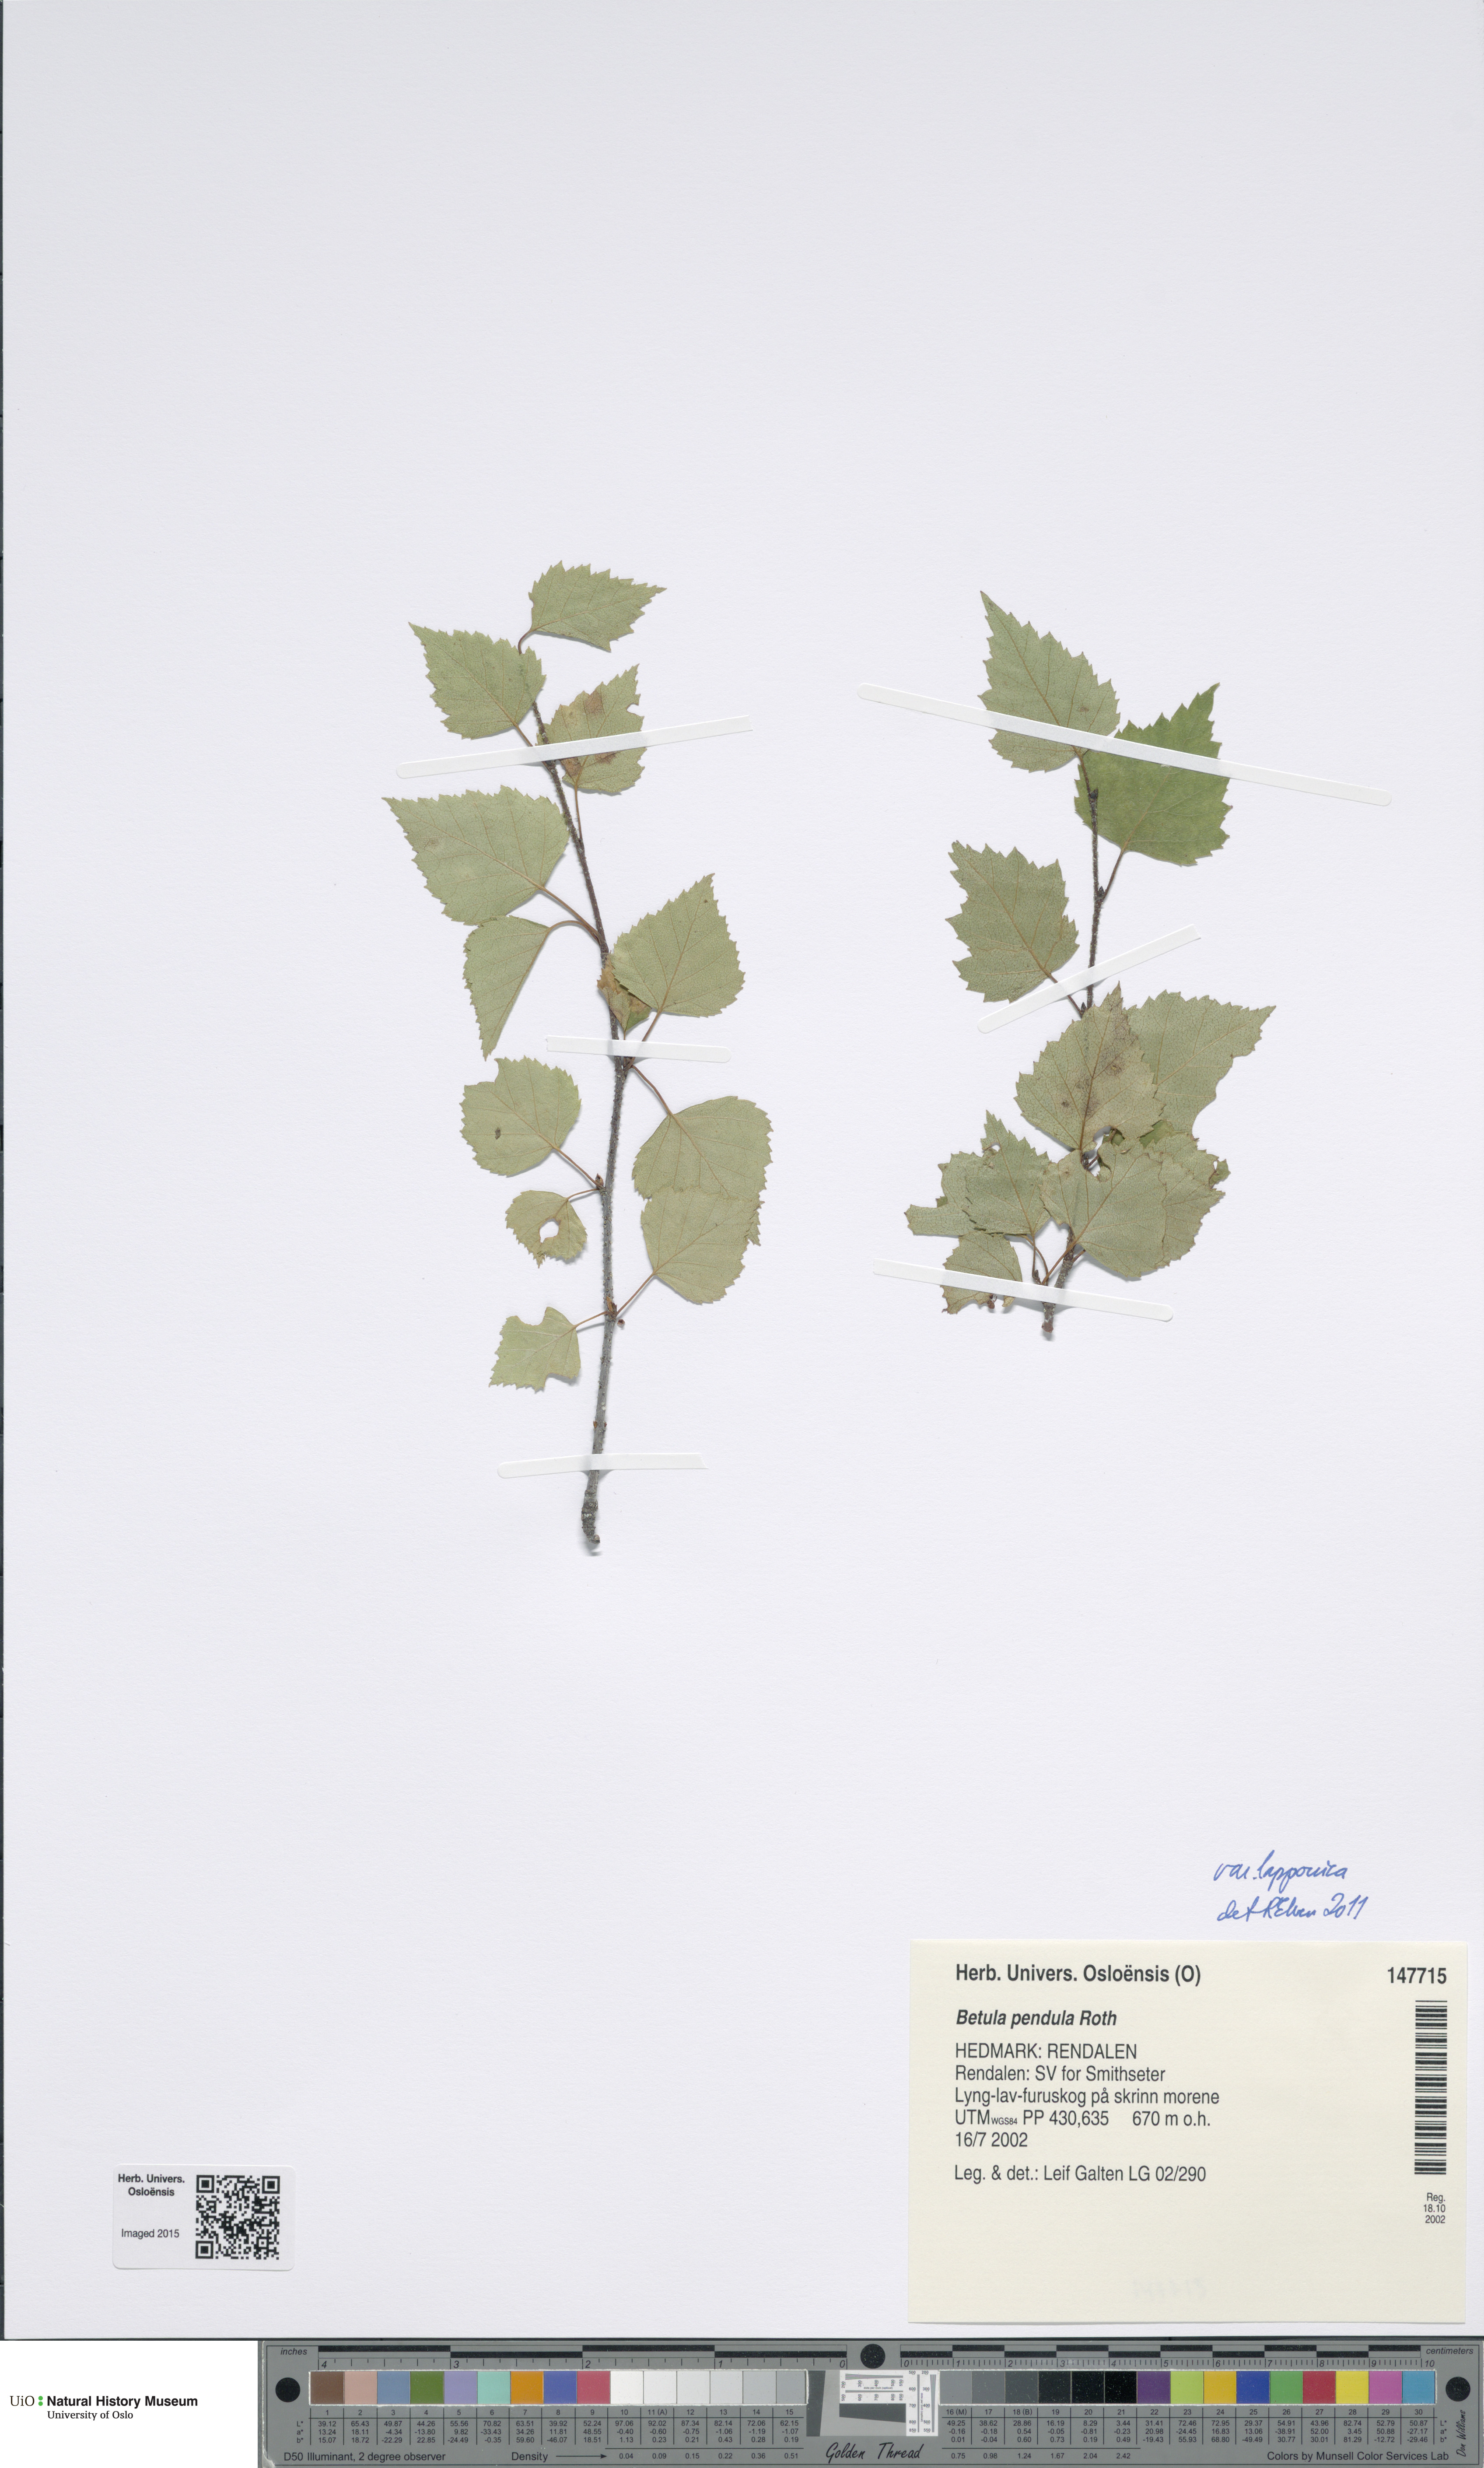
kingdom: Plantae
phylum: Tracheophyta
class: Magnoliopsida
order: Fagales
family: Betulaceae
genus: Betula
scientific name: Betula pendula
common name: Silver birch
